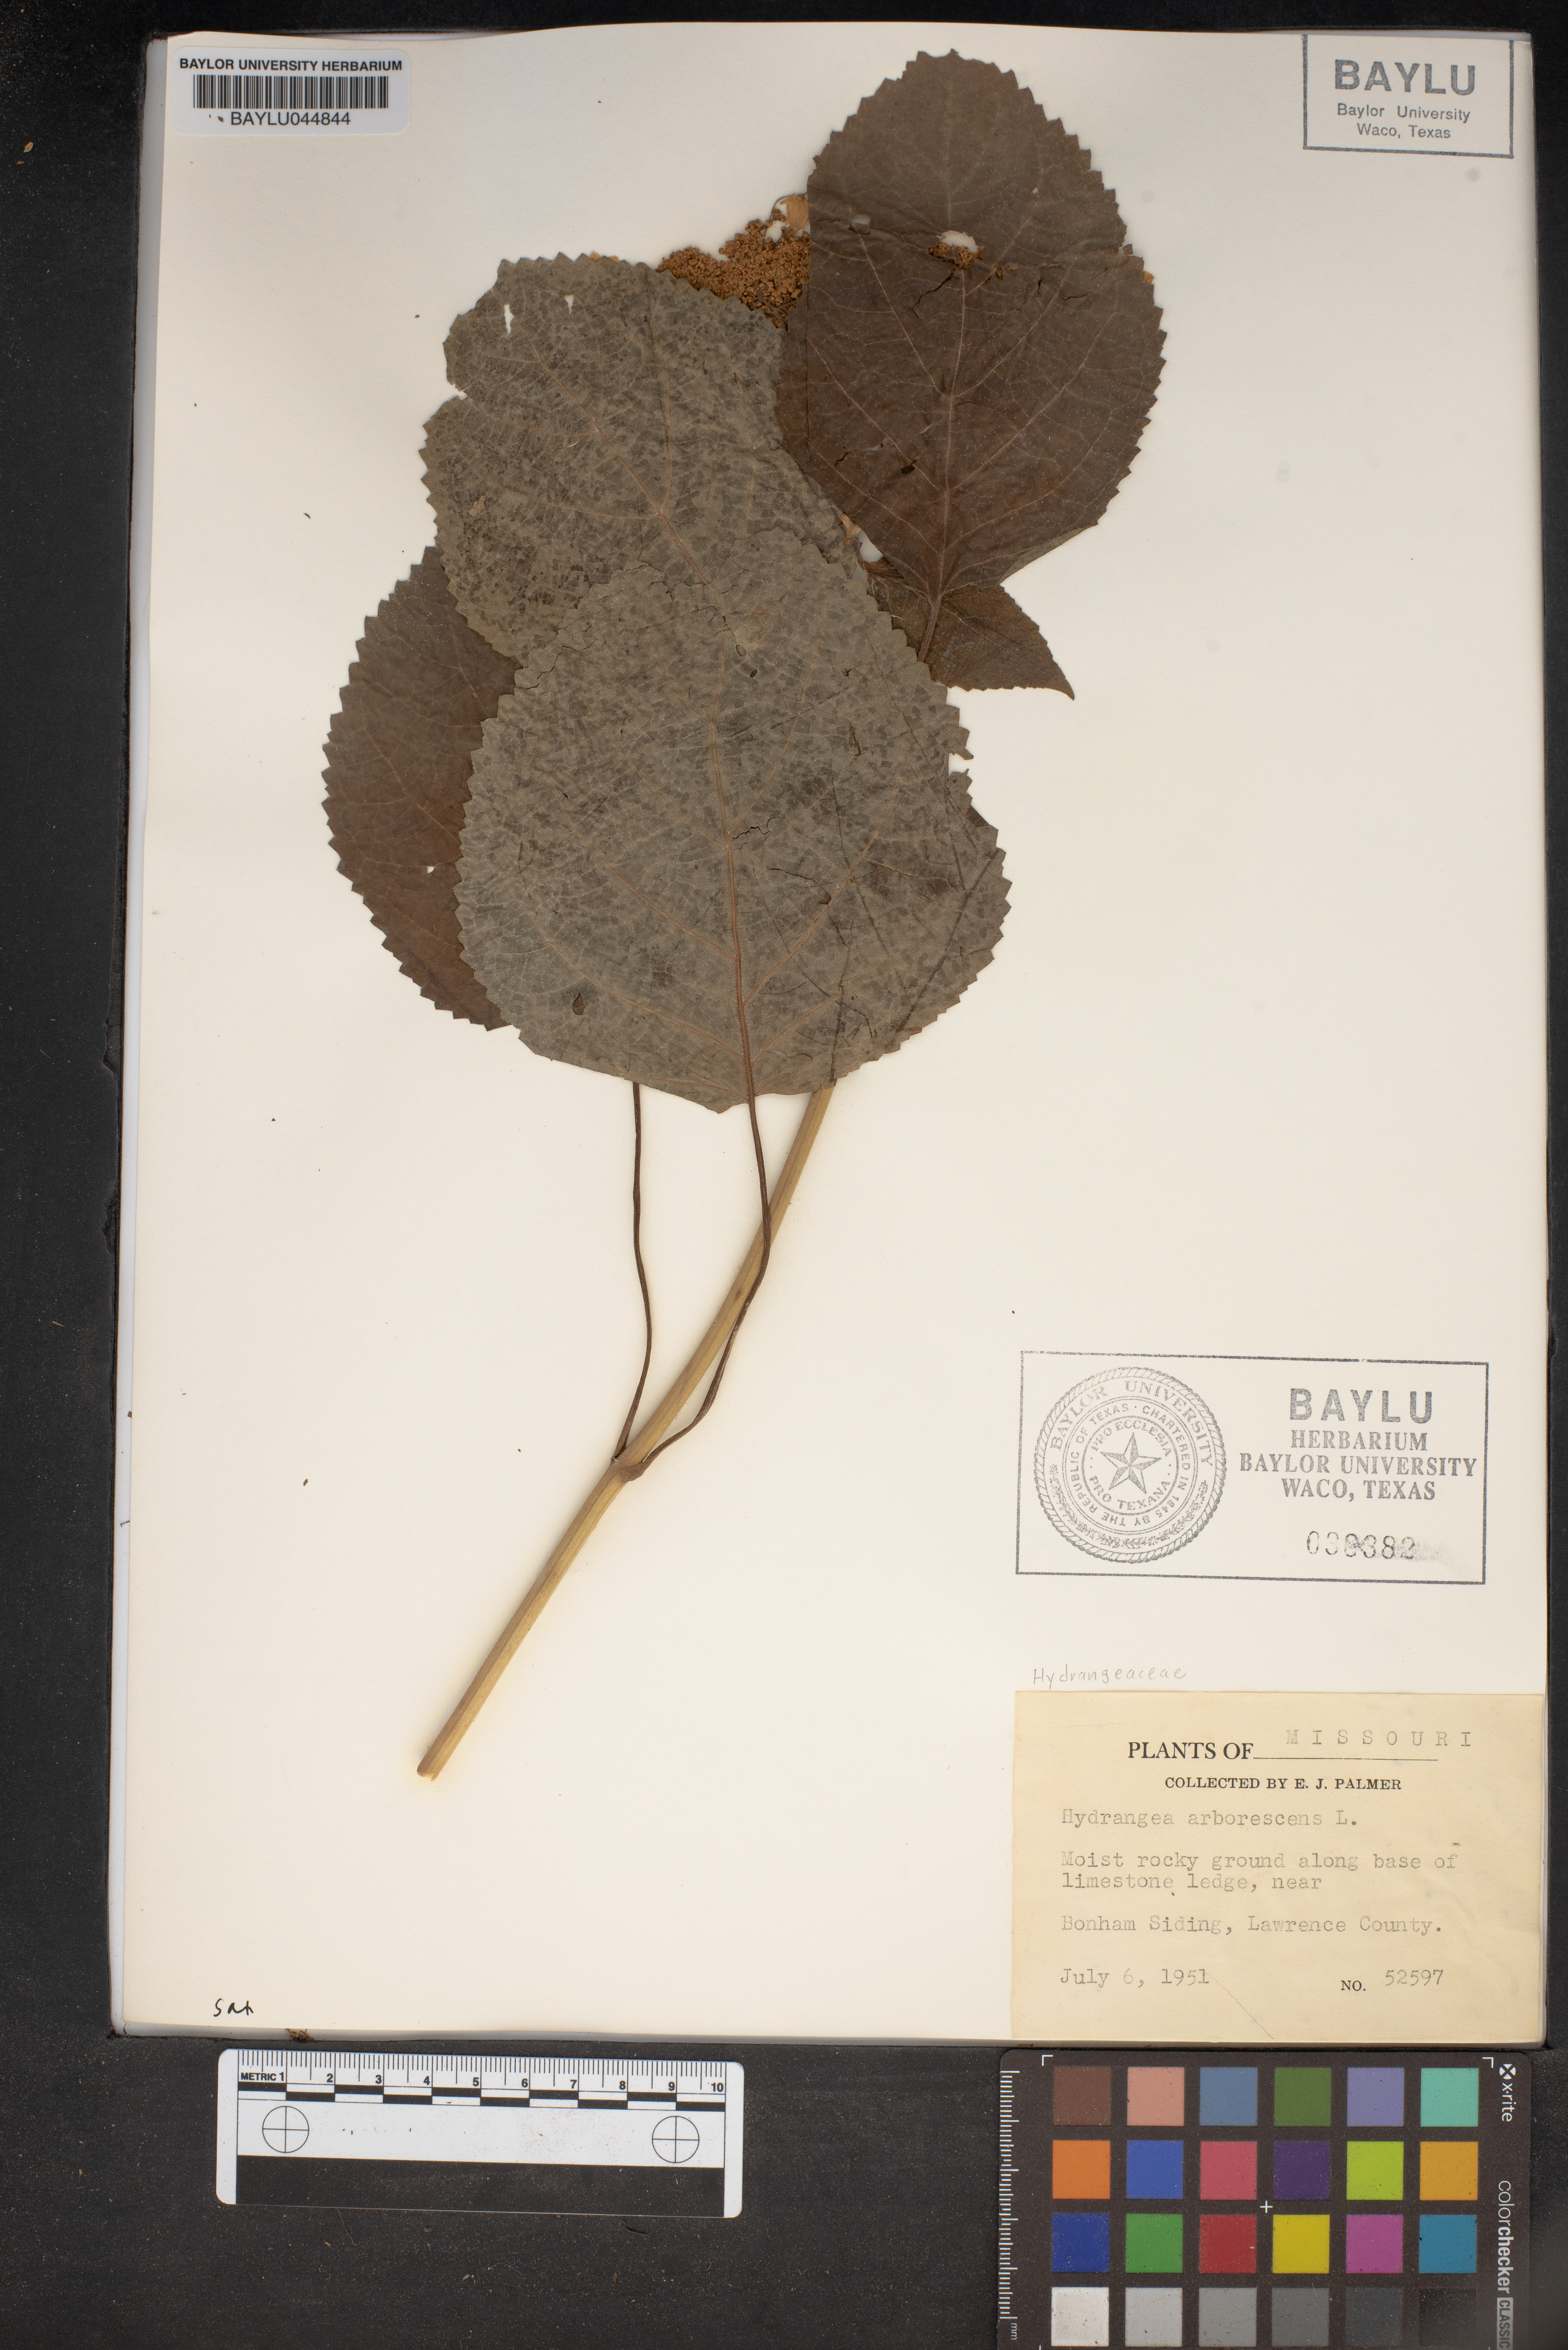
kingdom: Plantae
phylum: Tracheophyta
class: Magnoliopsida
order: Cornales
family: Hydrangeaceae
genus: Hydrangea
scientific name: Hydrangea arborescens
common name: Sevenbark
